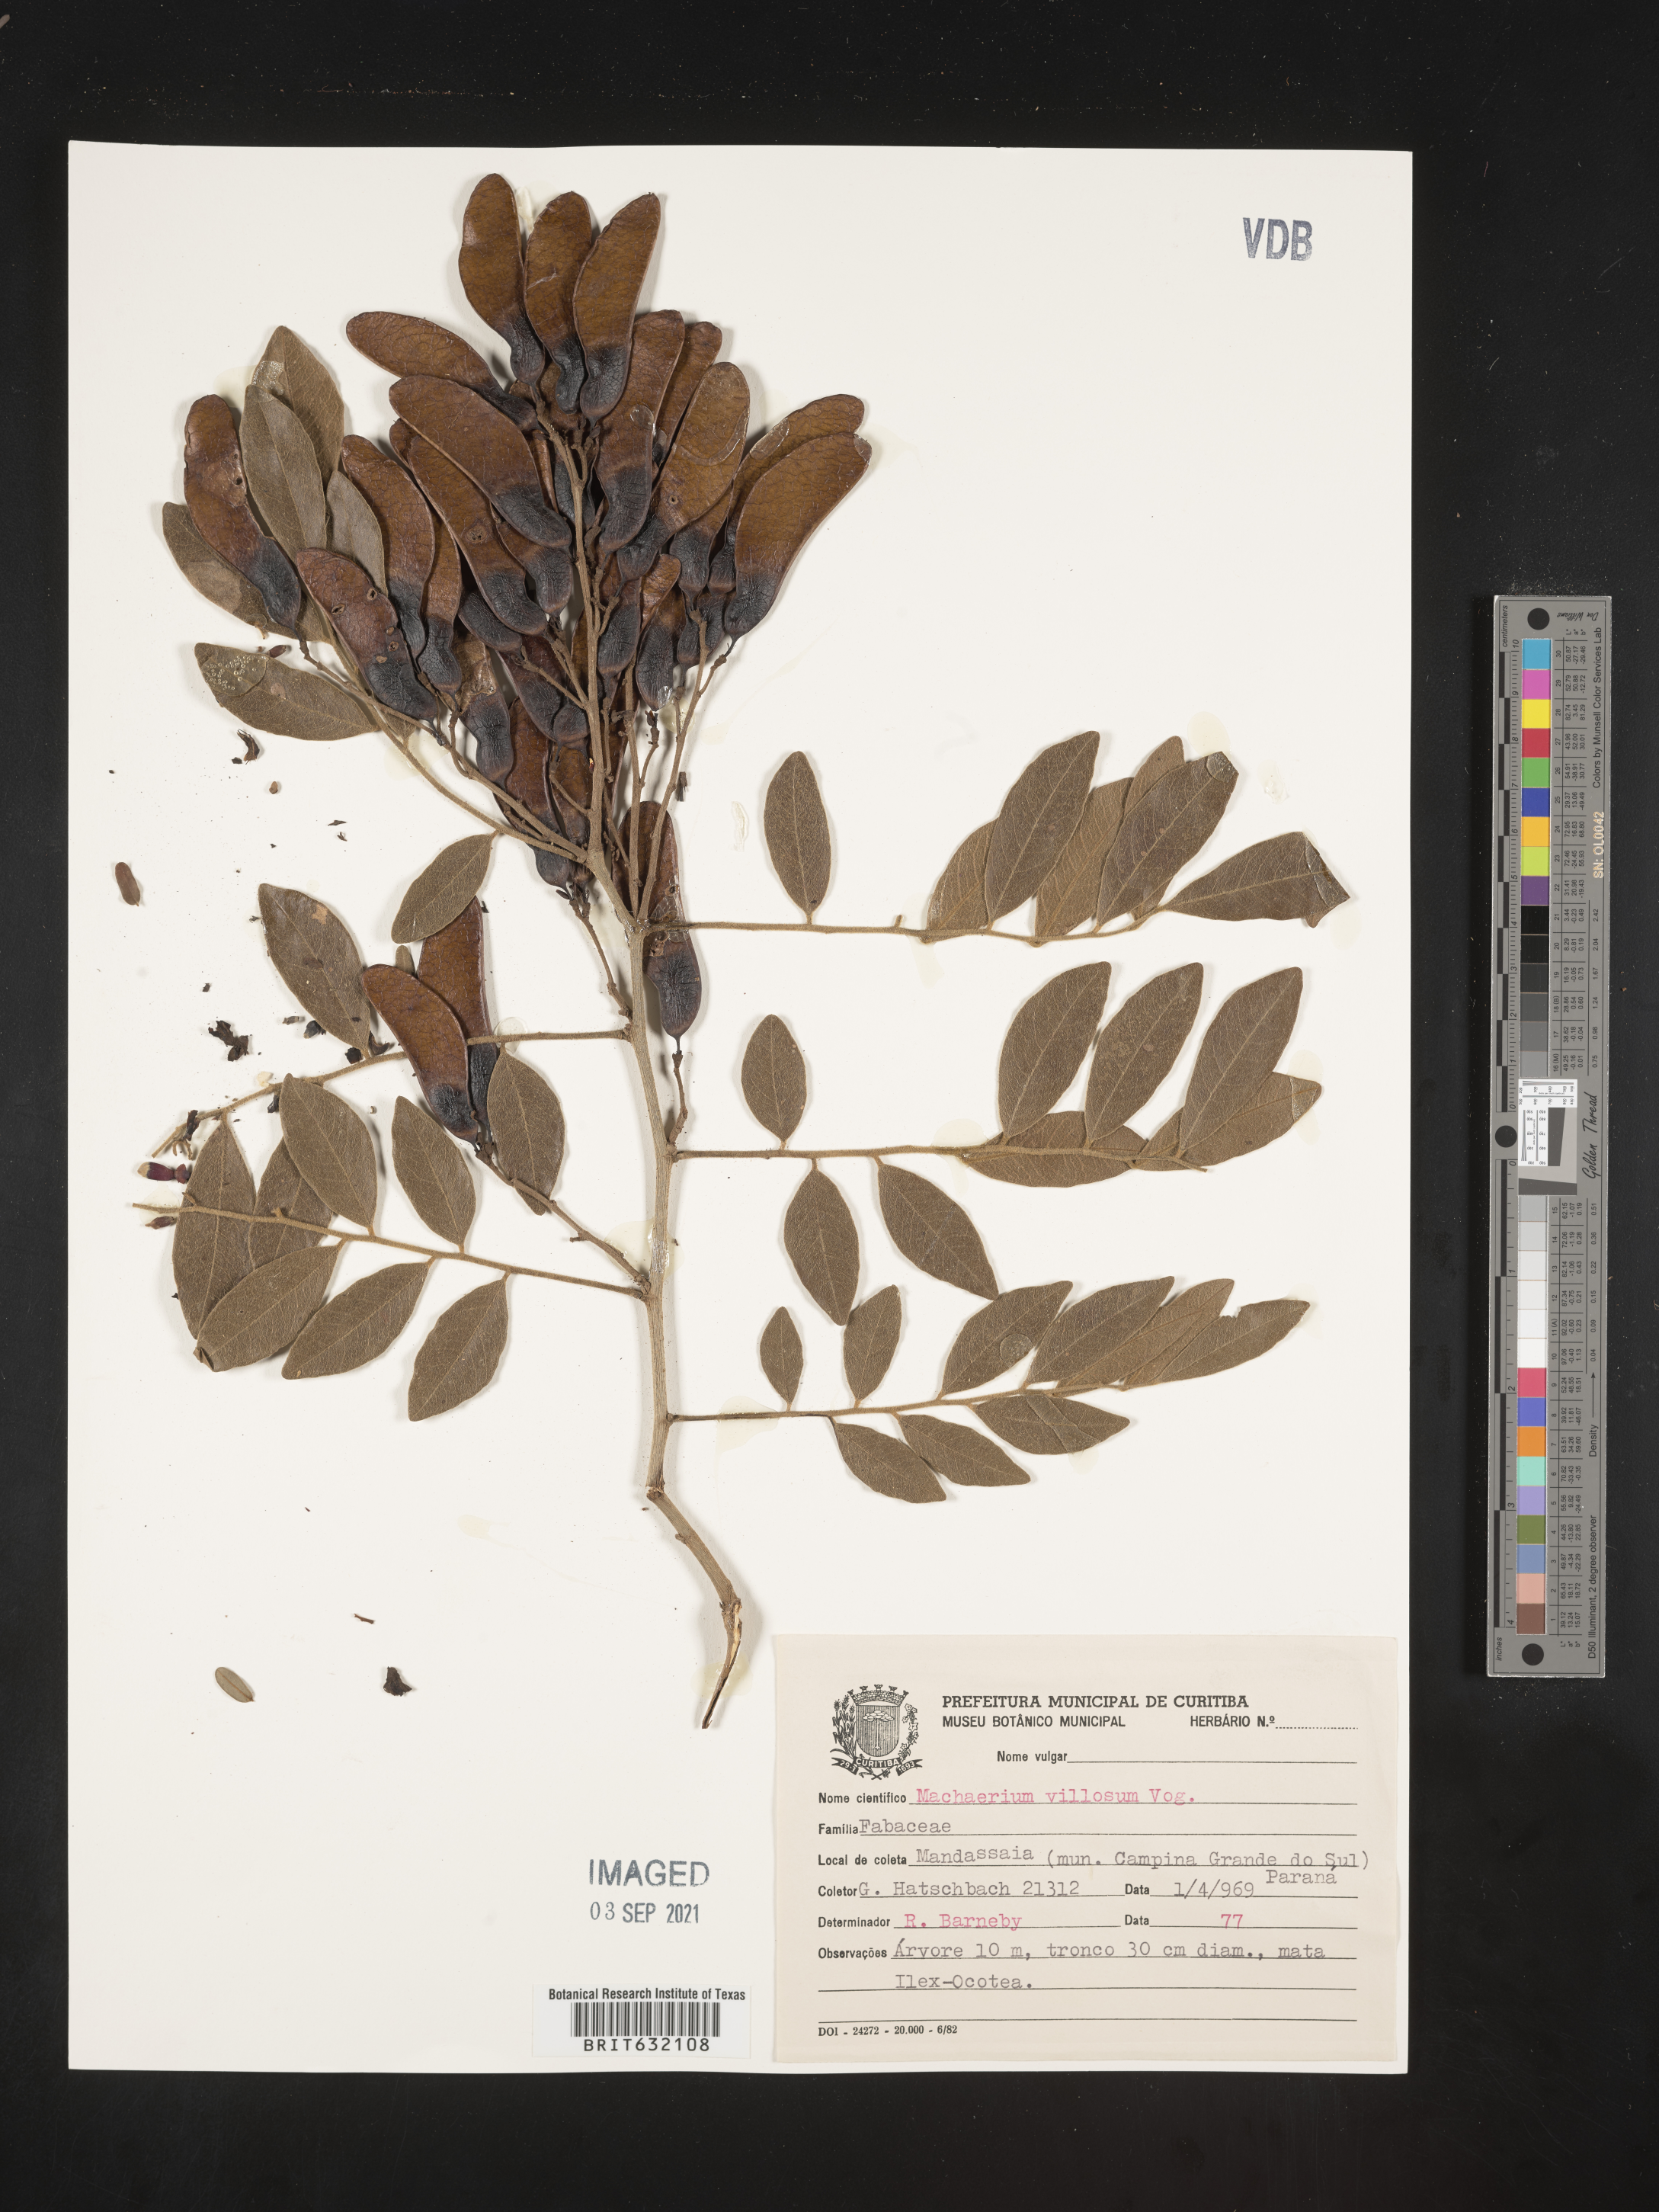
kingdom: Plantae
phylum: Tracheophyta
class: Magnoliopsida
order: Fabales
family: Fabaceae
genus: Machaerium
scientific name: Machaerium
